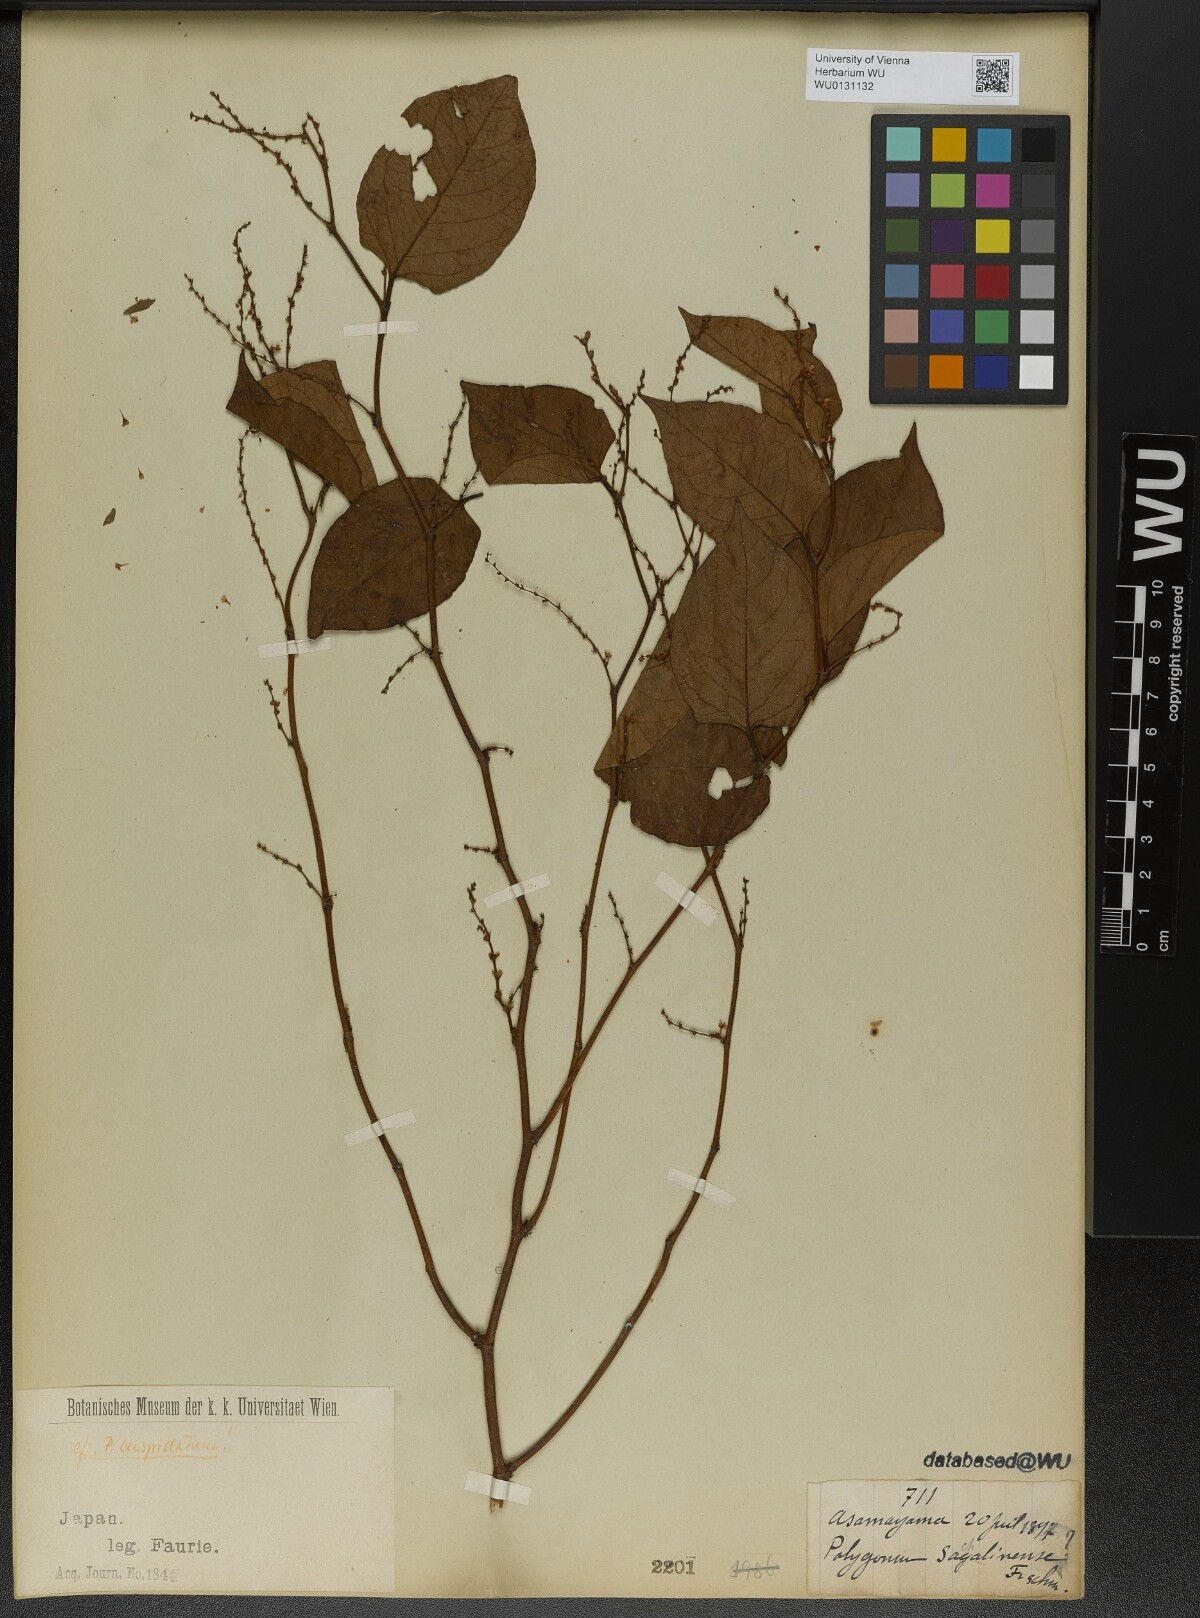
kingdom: Plantae
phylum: Tracheophyta
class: Magnoliopsida
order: Caryophyllales
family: Polygonaceae
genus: Reynoutria
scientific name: Reynoutria japonica
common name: Japanese knotweed
